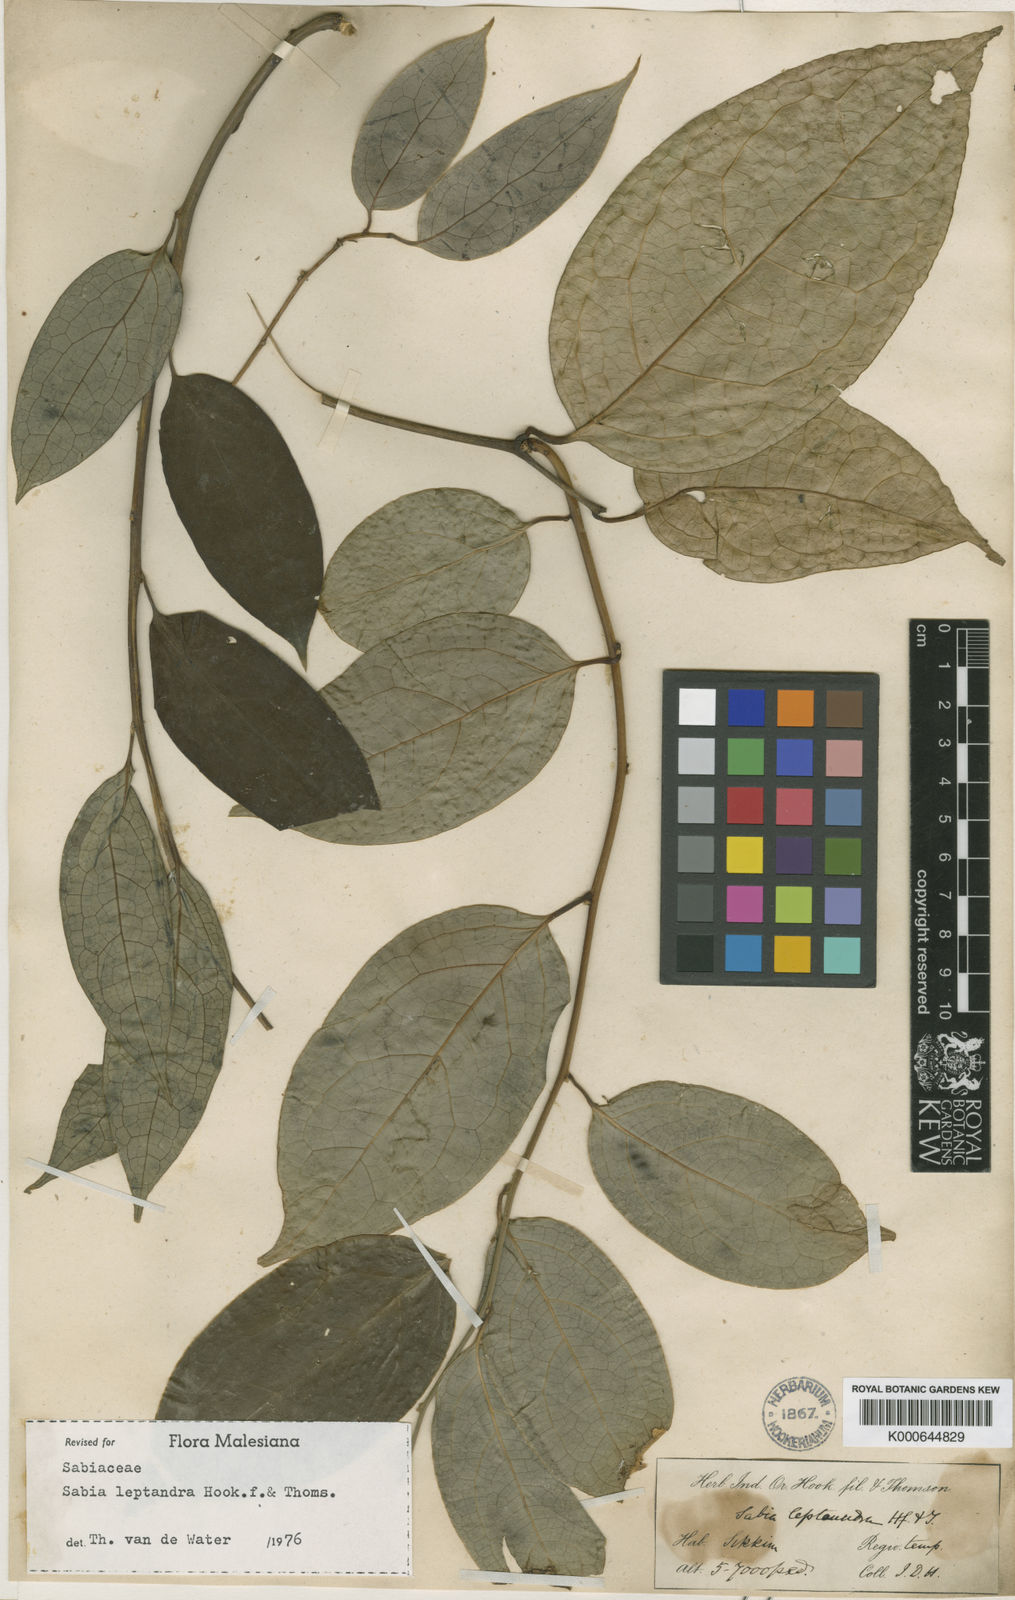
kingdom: Plantae
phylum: Tracheophyta
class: Magnoliopsida
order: Proteales
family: Sabiaceae
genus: Sabia
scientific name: Sabia campanulata
